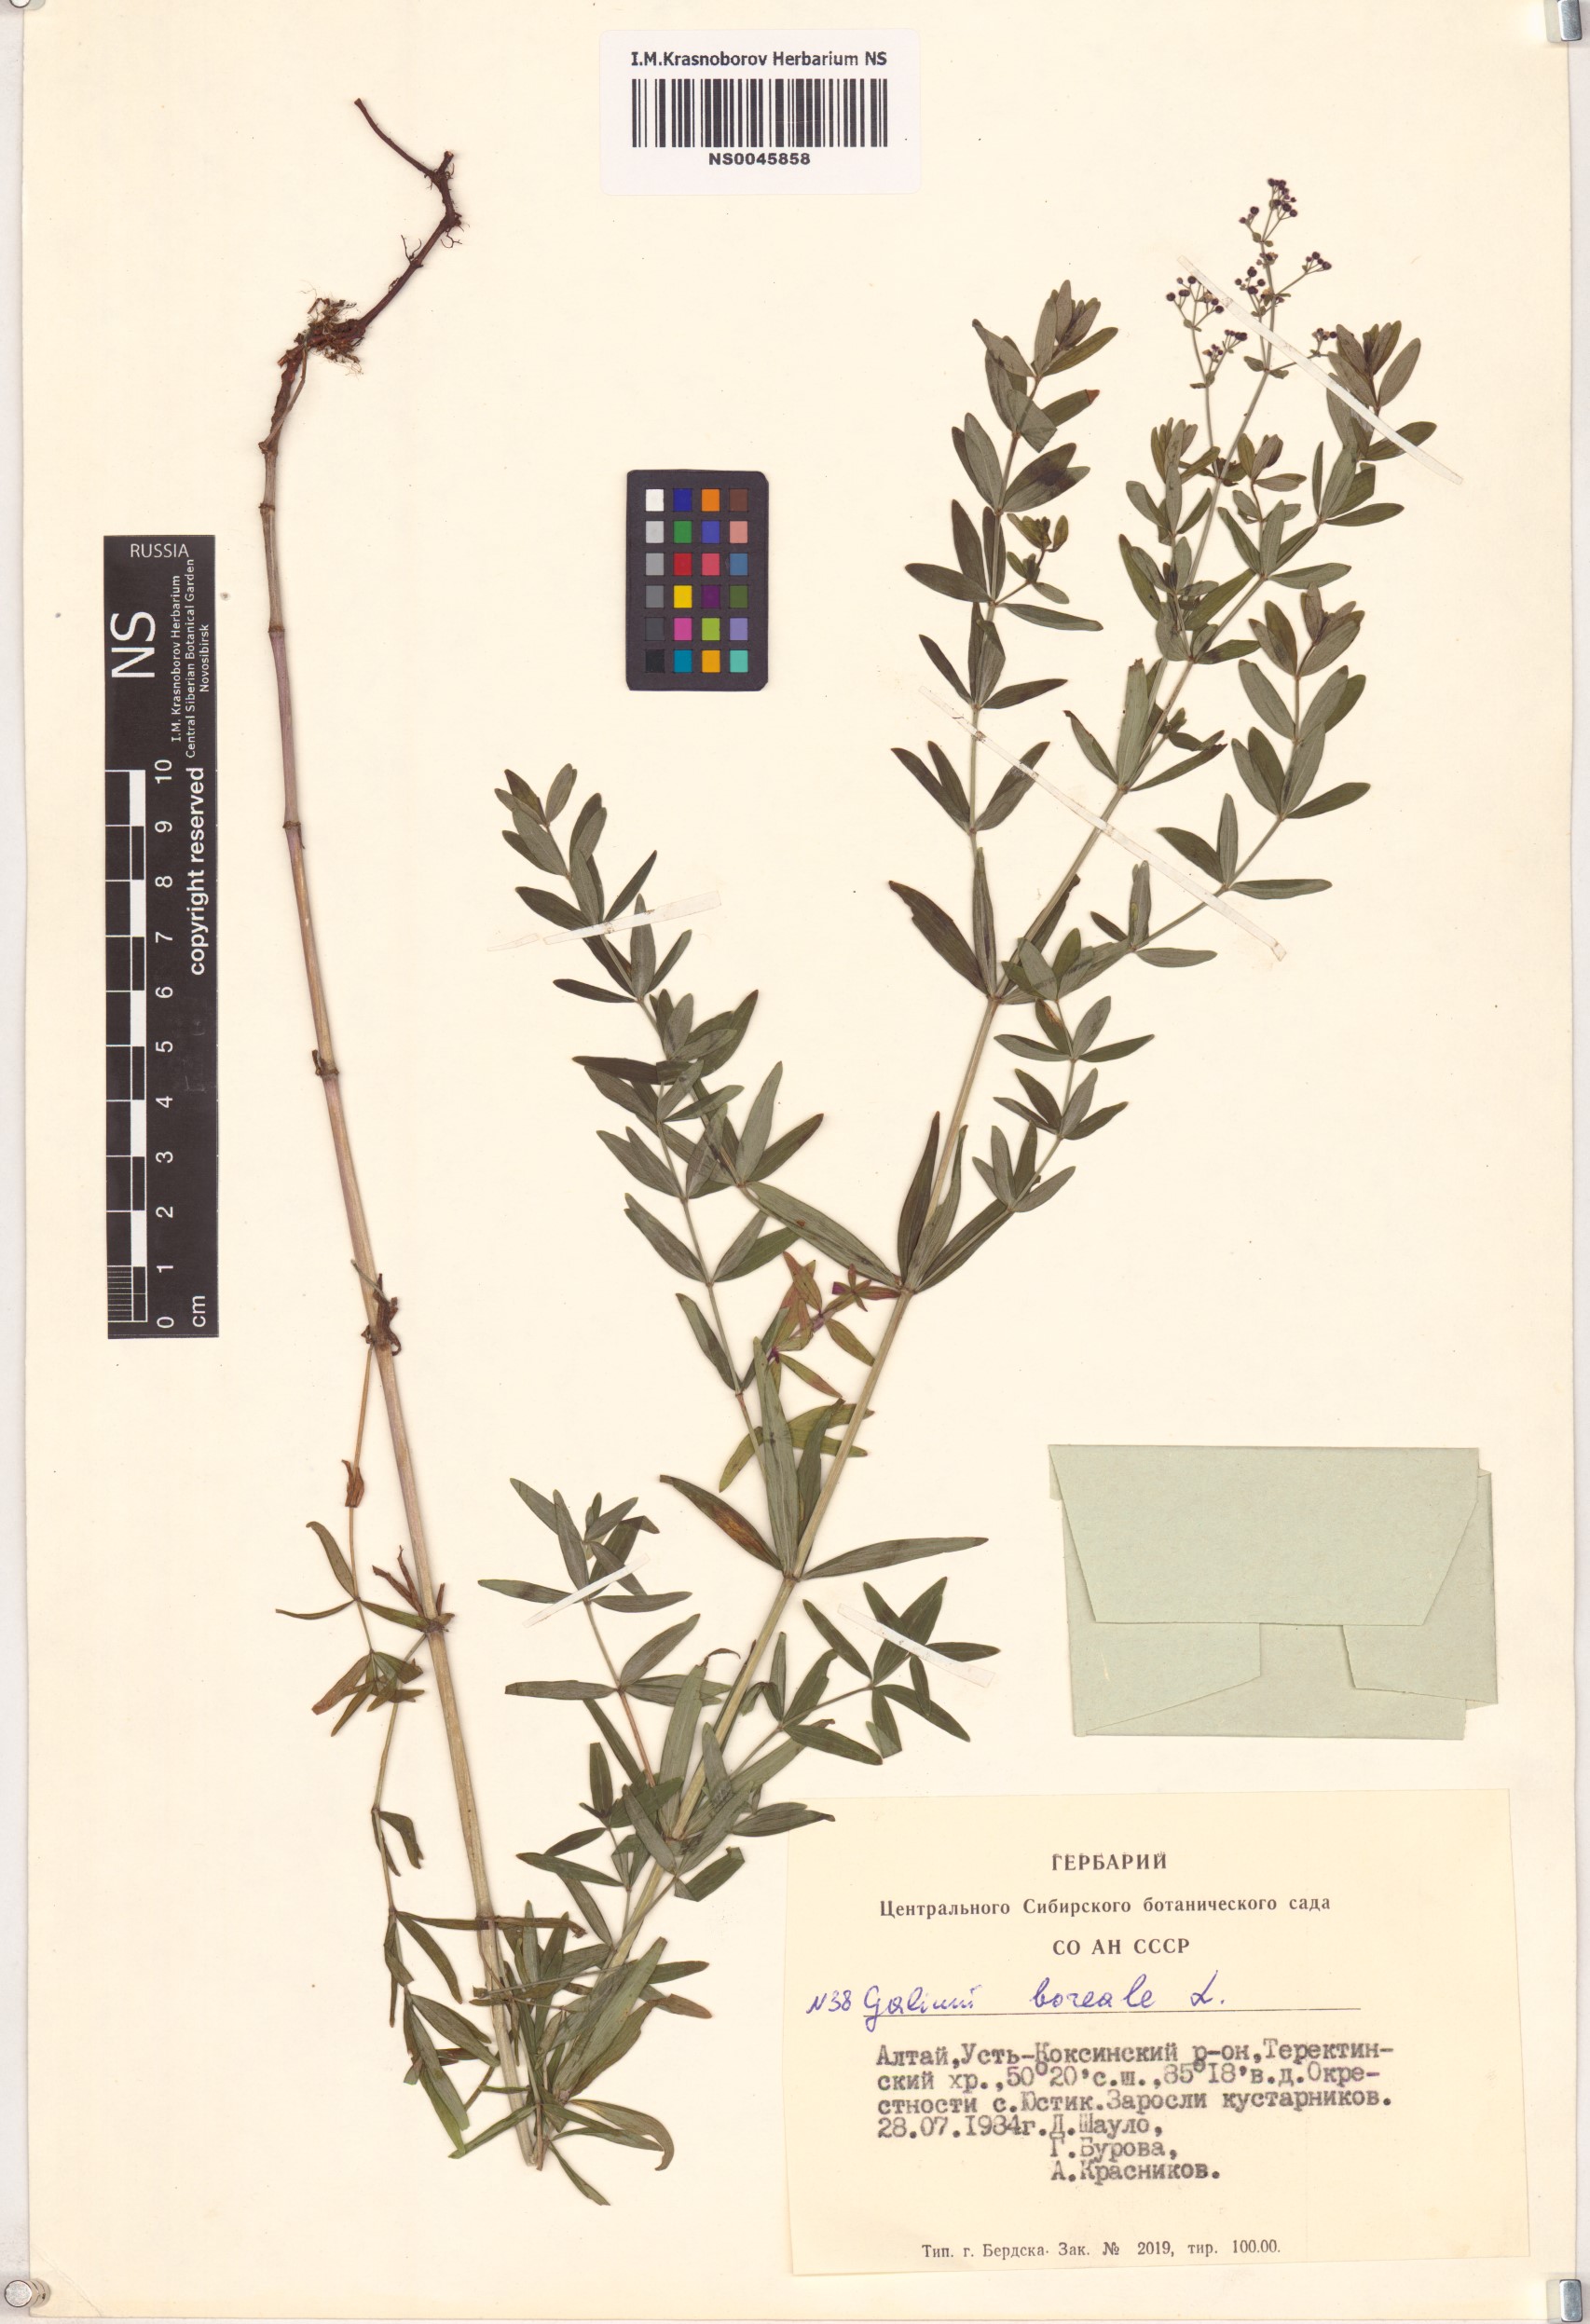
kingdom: Plantae
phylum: Tracheophyta
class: Magnoliopsida
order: Gentianales
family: Rubiaceae
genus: Galium
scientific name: Galium boreale
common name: Northern bedstraw
